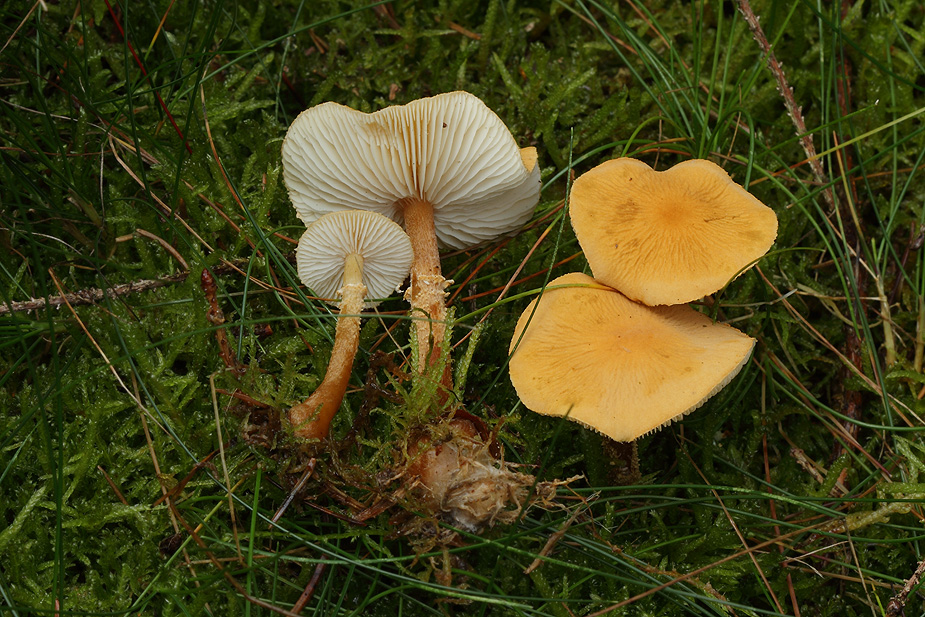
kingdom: Fungi
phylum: Basidiomycota
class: Agaricomycetes
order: Agaricales
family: Tricholomataceae
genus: Cystoderma
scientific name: Cystoderma amianthinum
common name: okkergul grynhat
